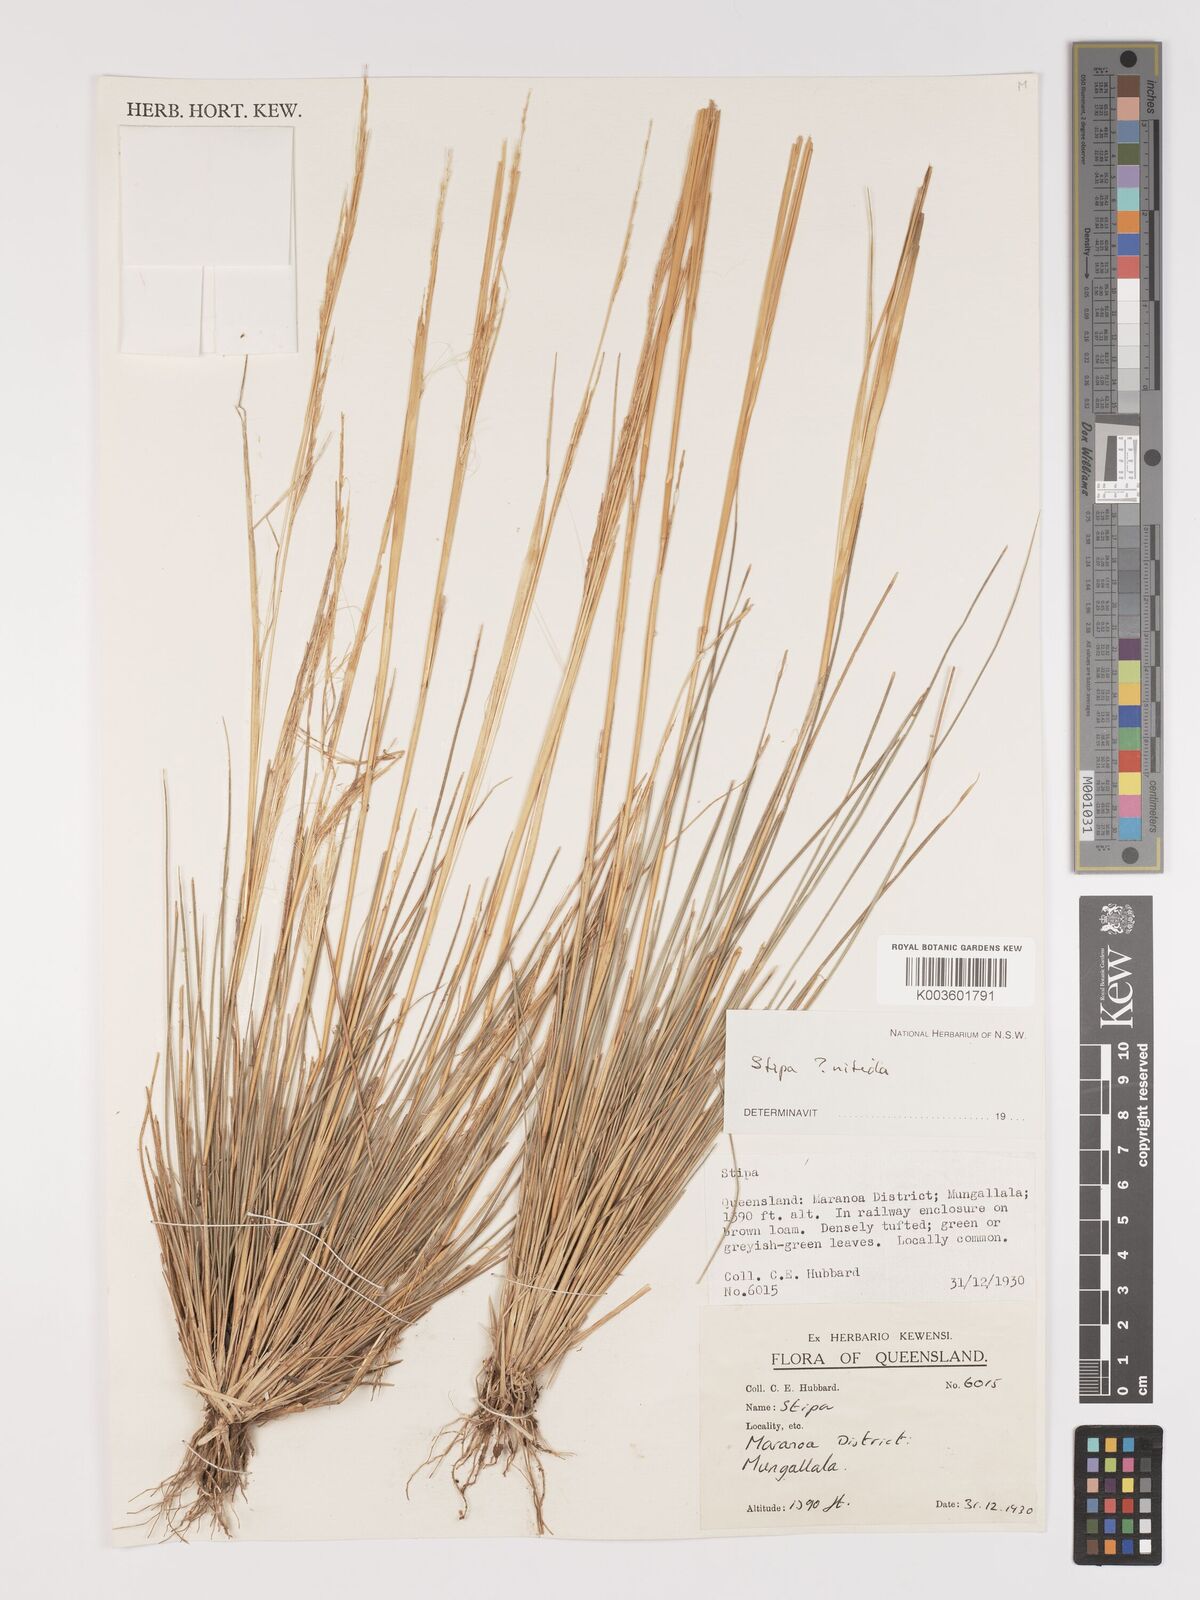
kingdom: Plantae
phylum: Tracheophyta
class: Liliopsida
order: Poales
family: Poaceae
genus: Austrostipa
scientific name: Austrostipa nitida
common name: Balcarra grass
